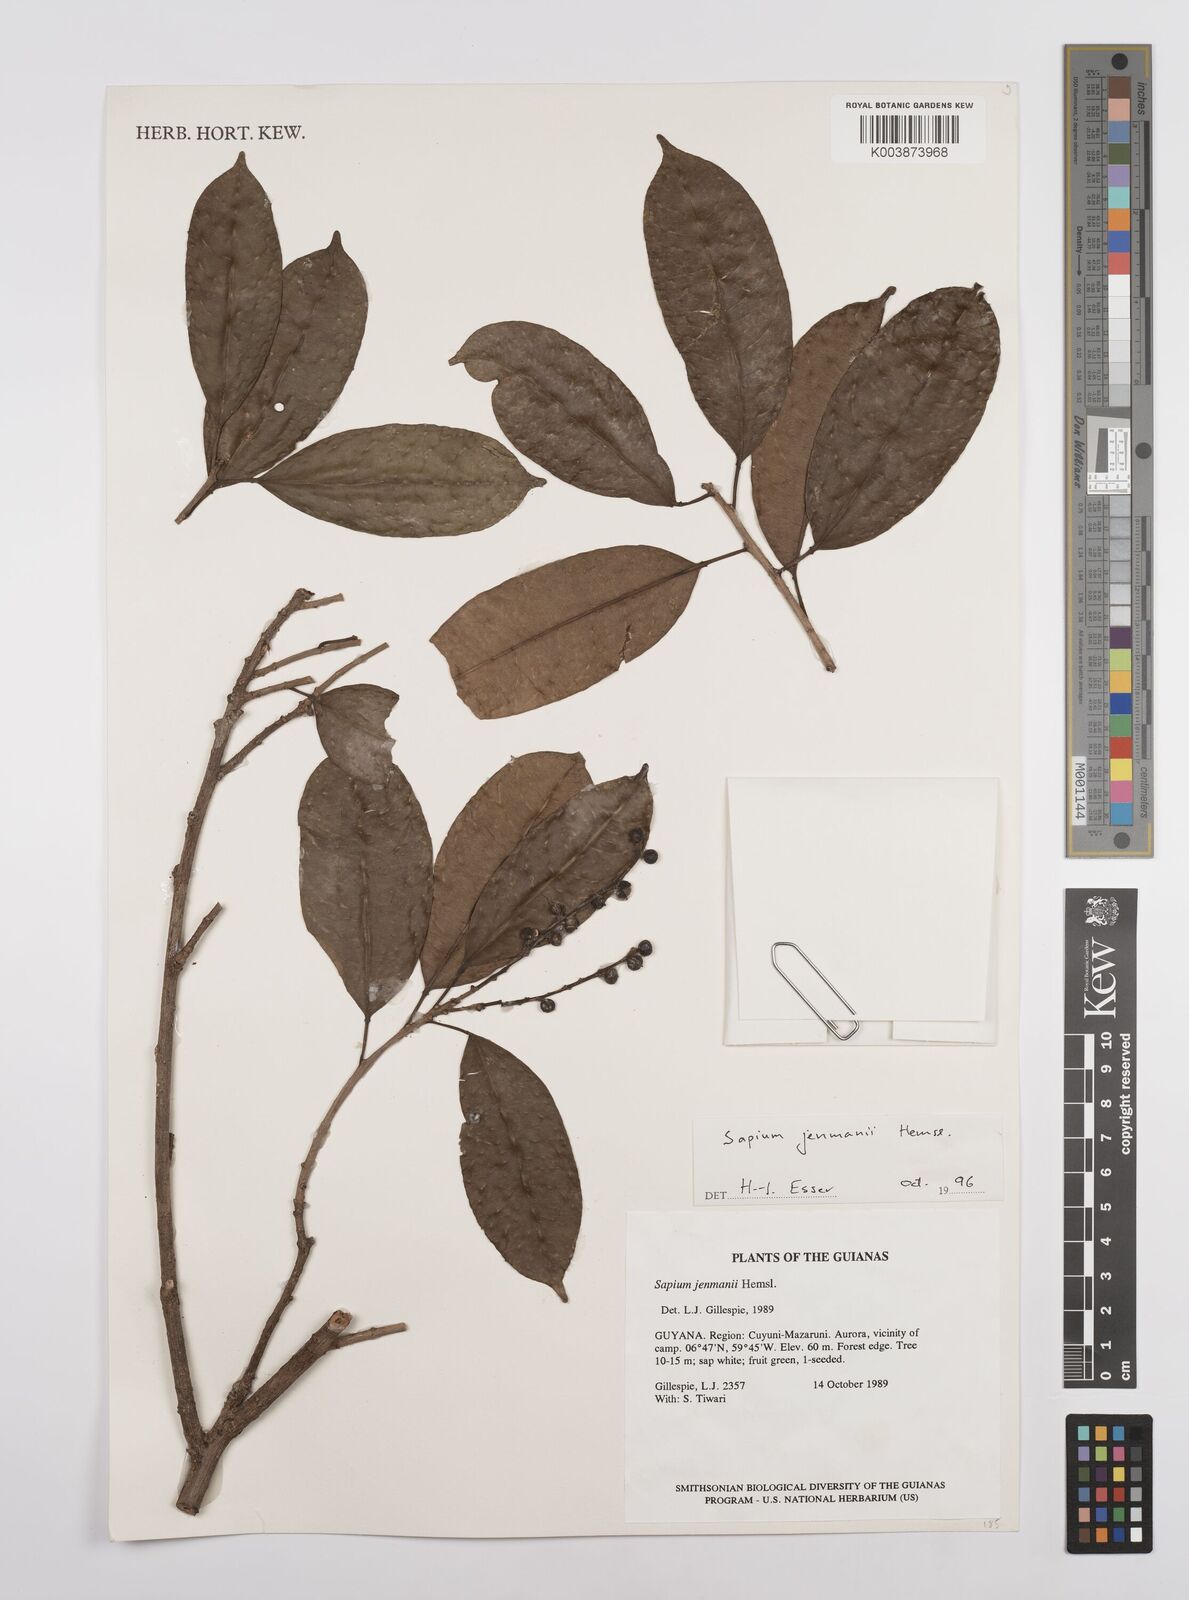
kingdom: Plantae
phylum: Tracheophyta
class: Magnoliopsida
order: Malpighiales
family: Euphorbiaceae
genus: Sapium
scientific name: Sapium jenmannii
